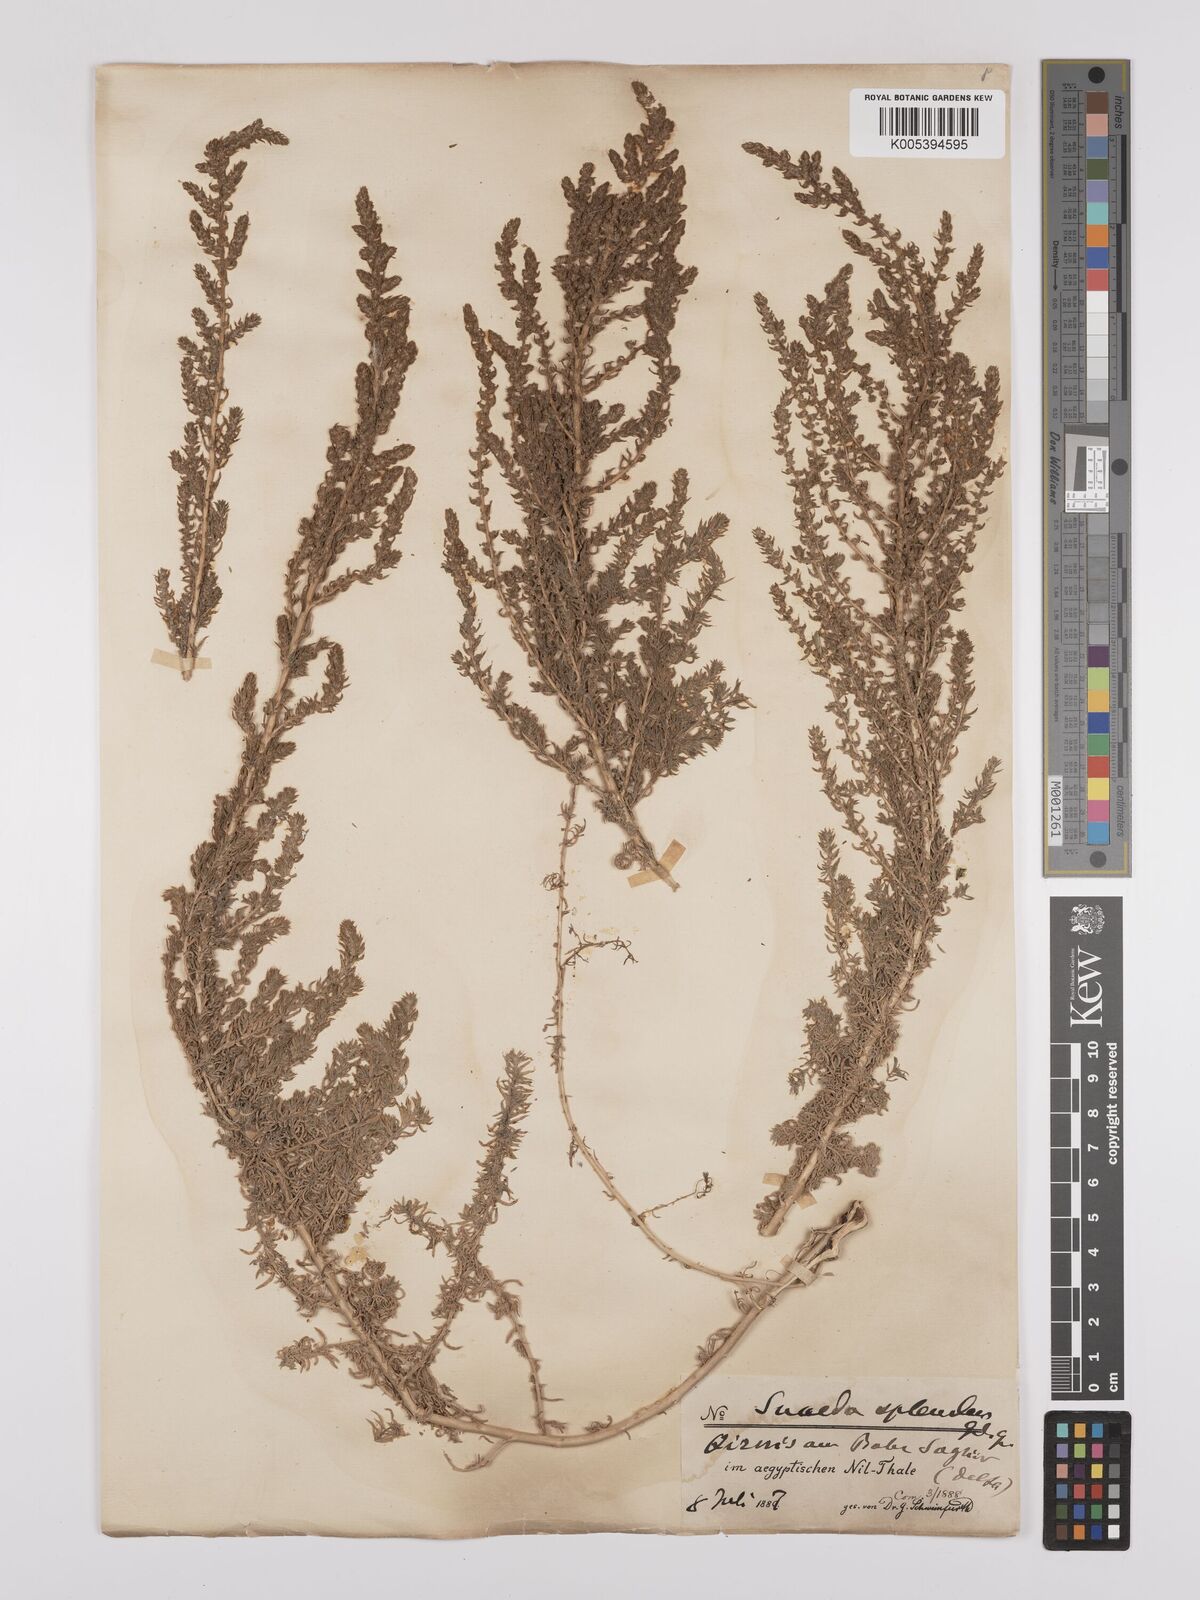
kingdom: Plantae
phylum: Tracheophyta
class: Magnoliopsida
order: Caryophyllales
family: Amaranthaceae
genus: Suaeda
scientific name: Suaeda
